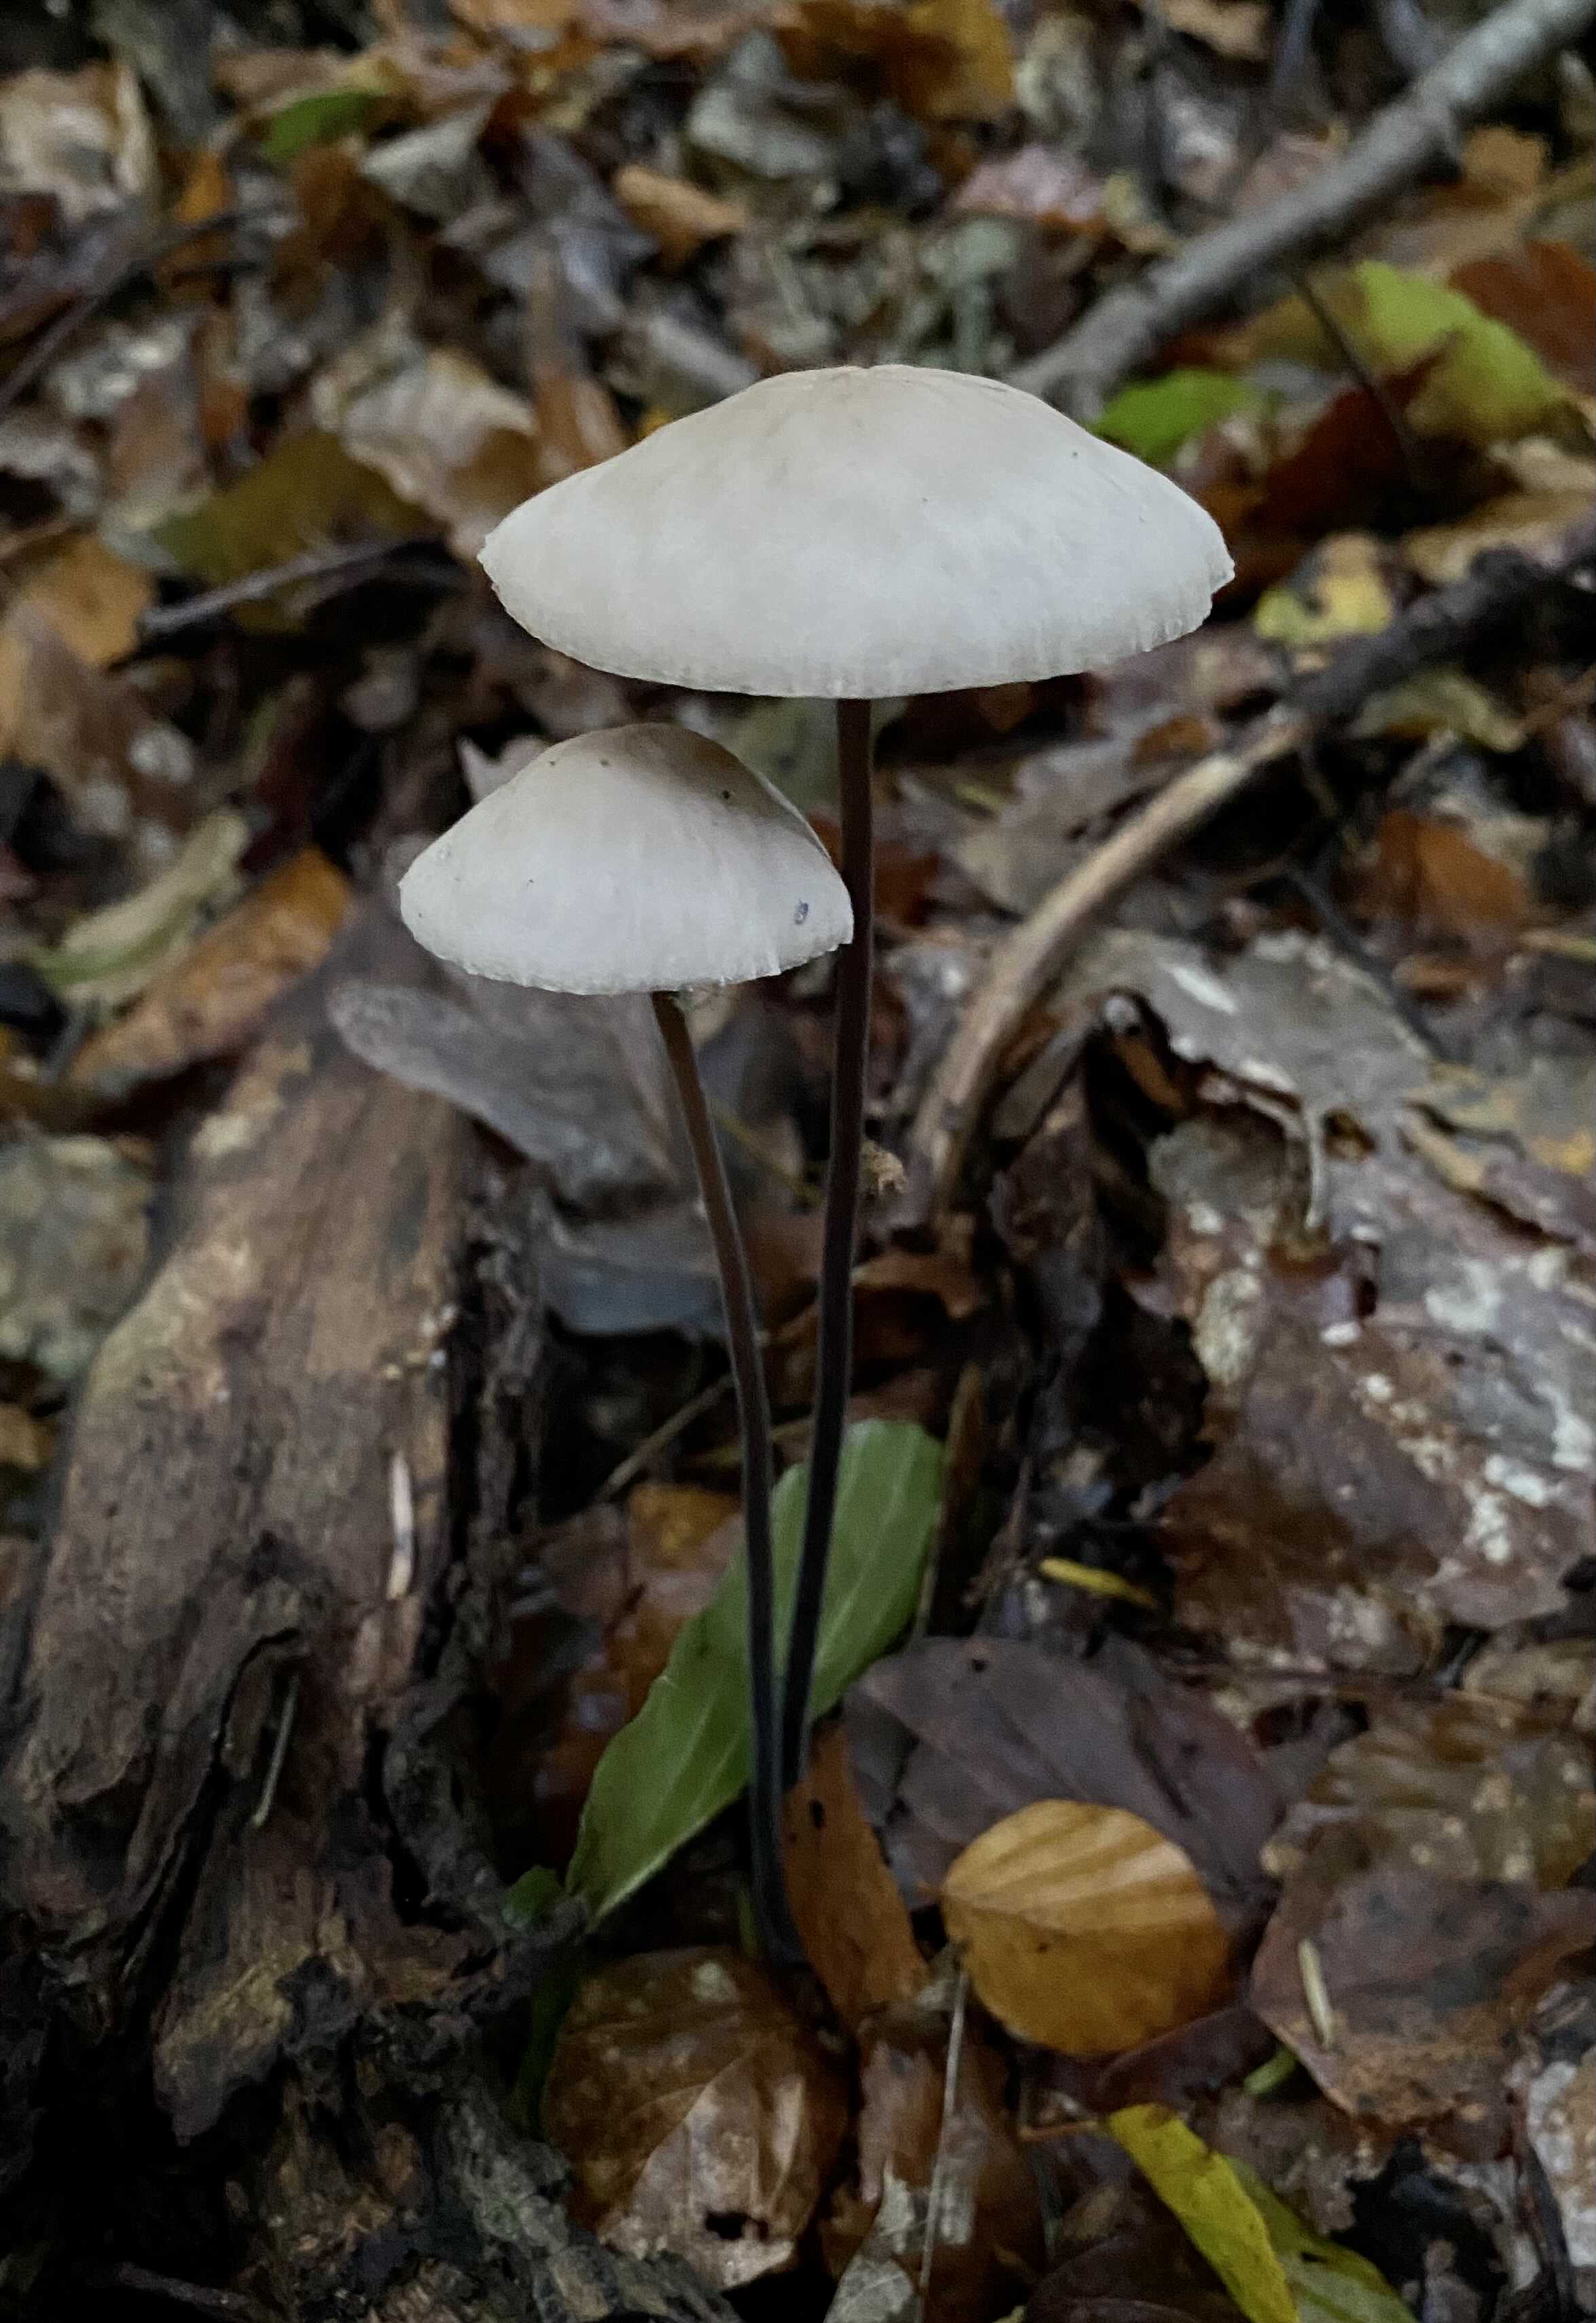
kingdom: Fungi
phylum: Basidiomycota
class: Agaricomycetes
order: Agaricales
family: Omphalotaceae
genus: Mycetinis
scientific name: Mycetinis alliaceus
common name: stor løghat
